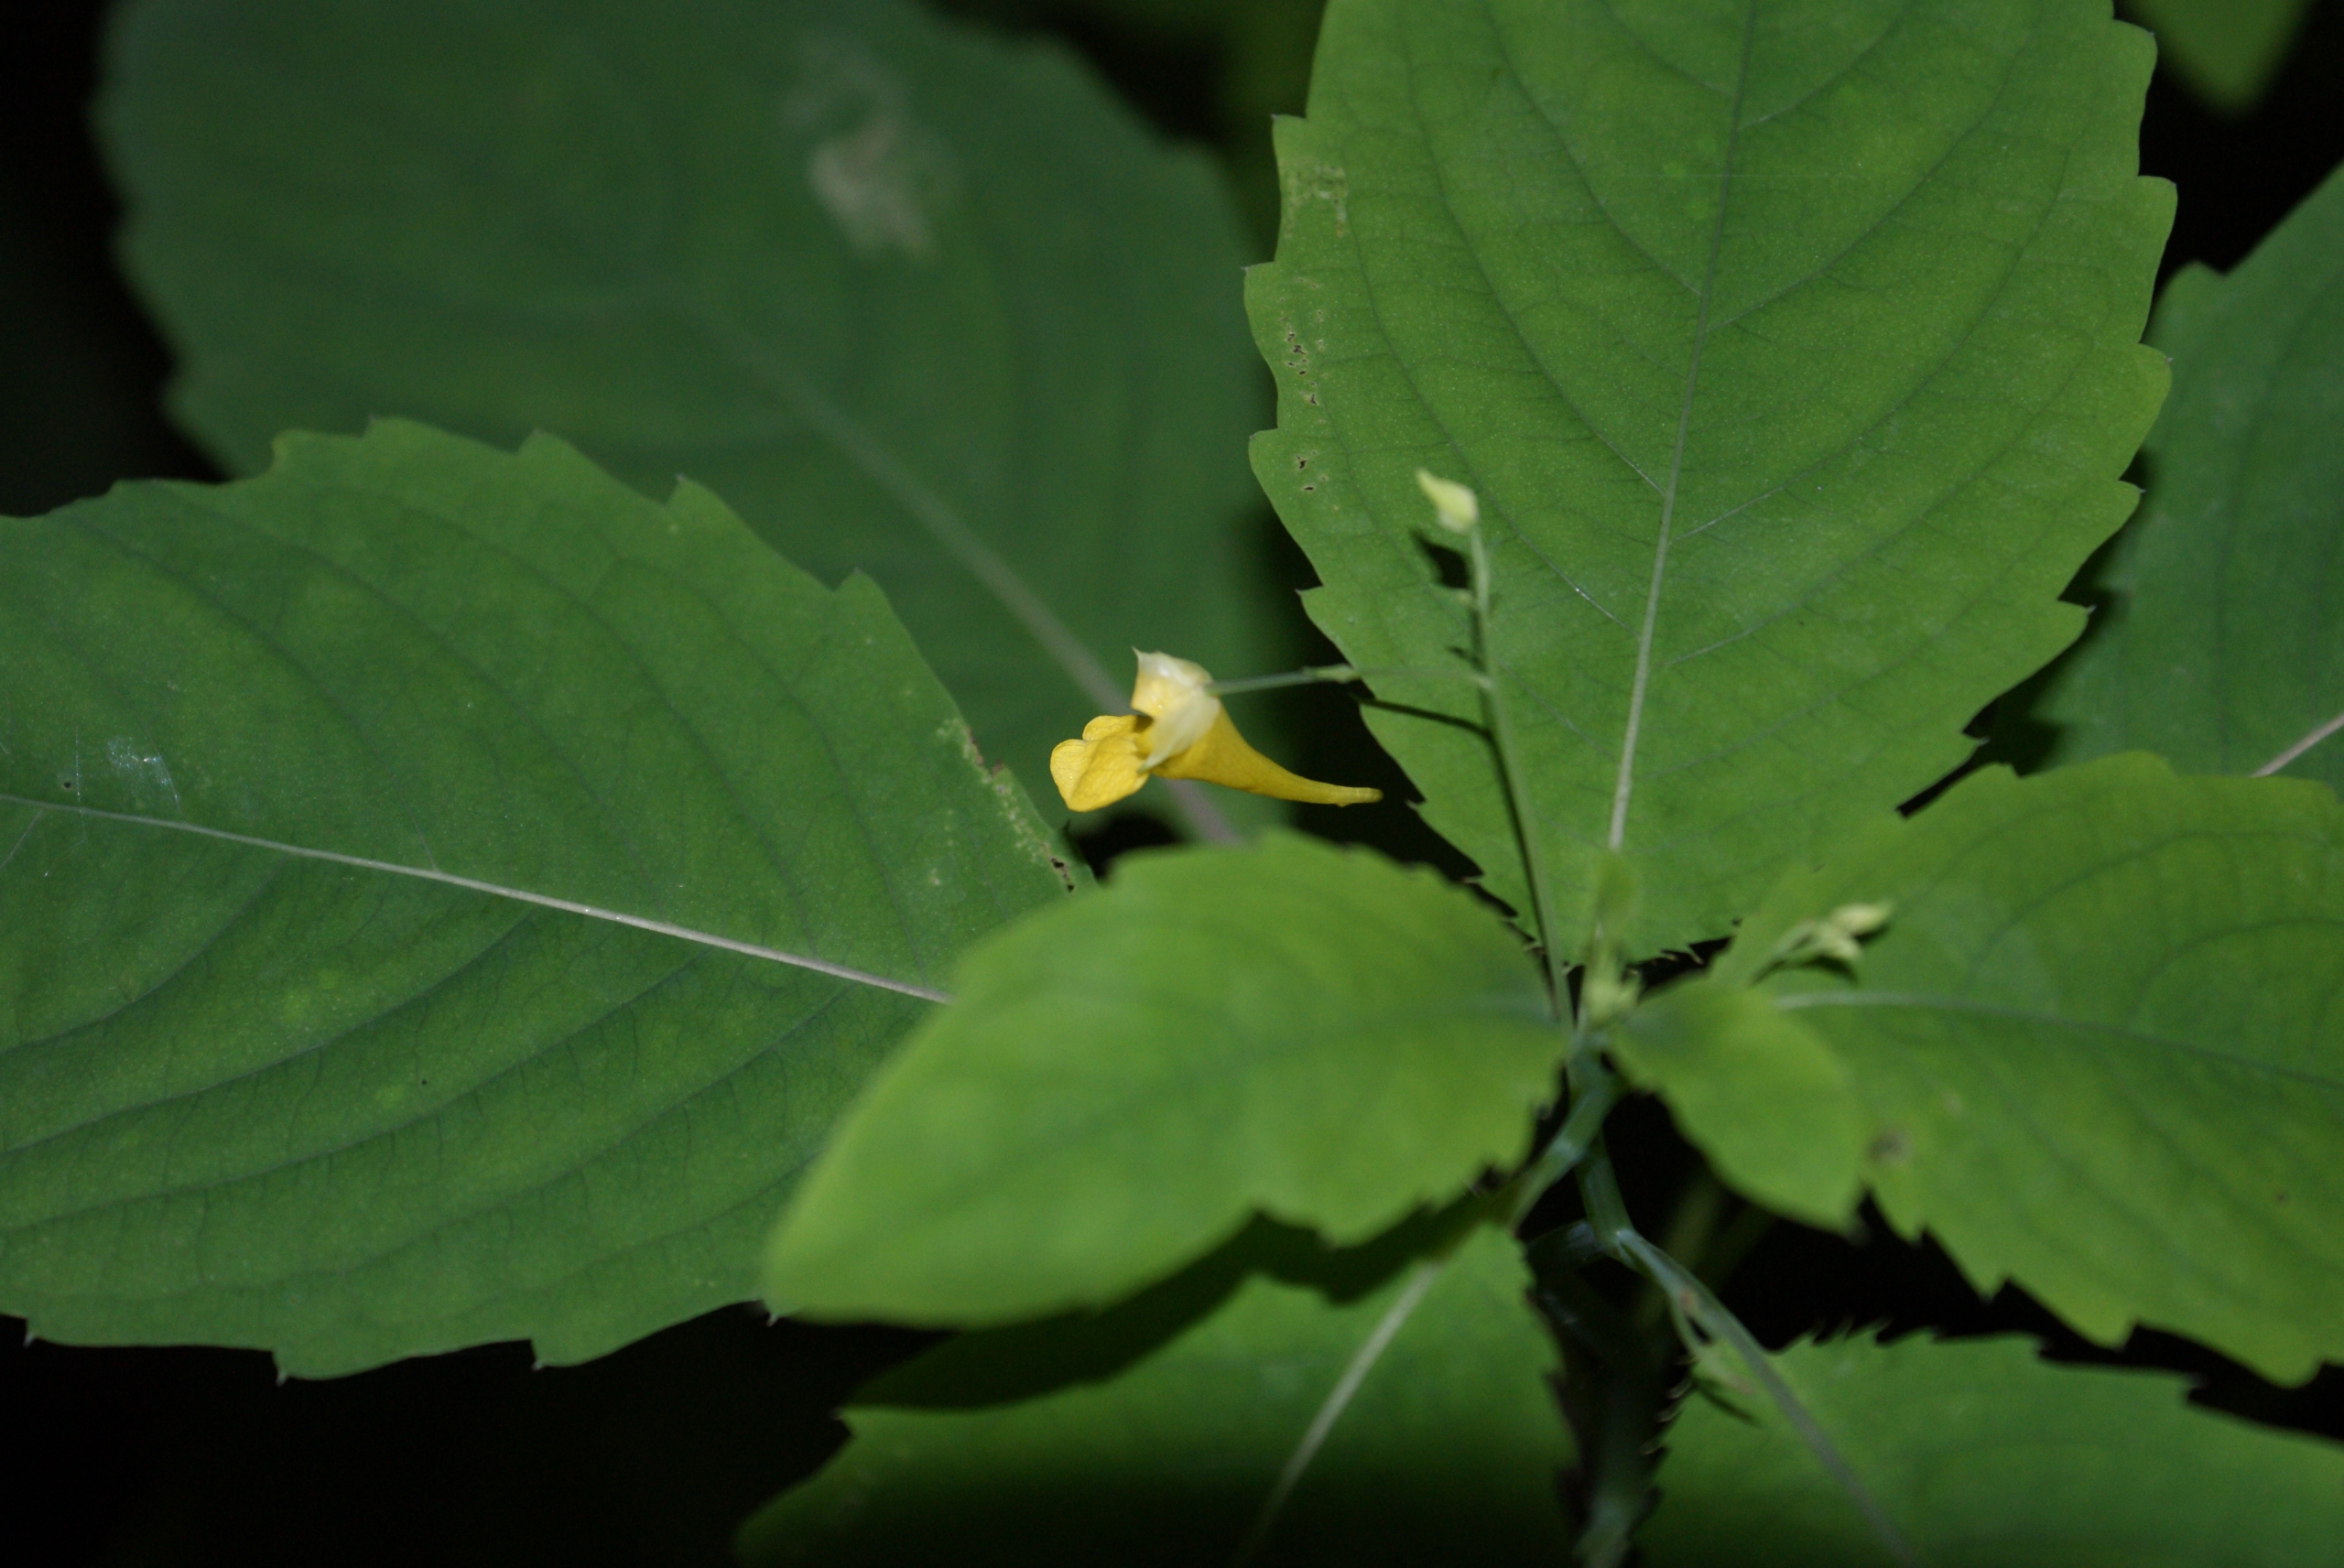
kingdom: Plantae
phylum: Tracheophyta
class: Magnoliopsida
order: Ericales
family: Balsaminaceae
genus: Impatiens
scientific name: Impatiens parviflora
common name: Småblomstret balsamin
